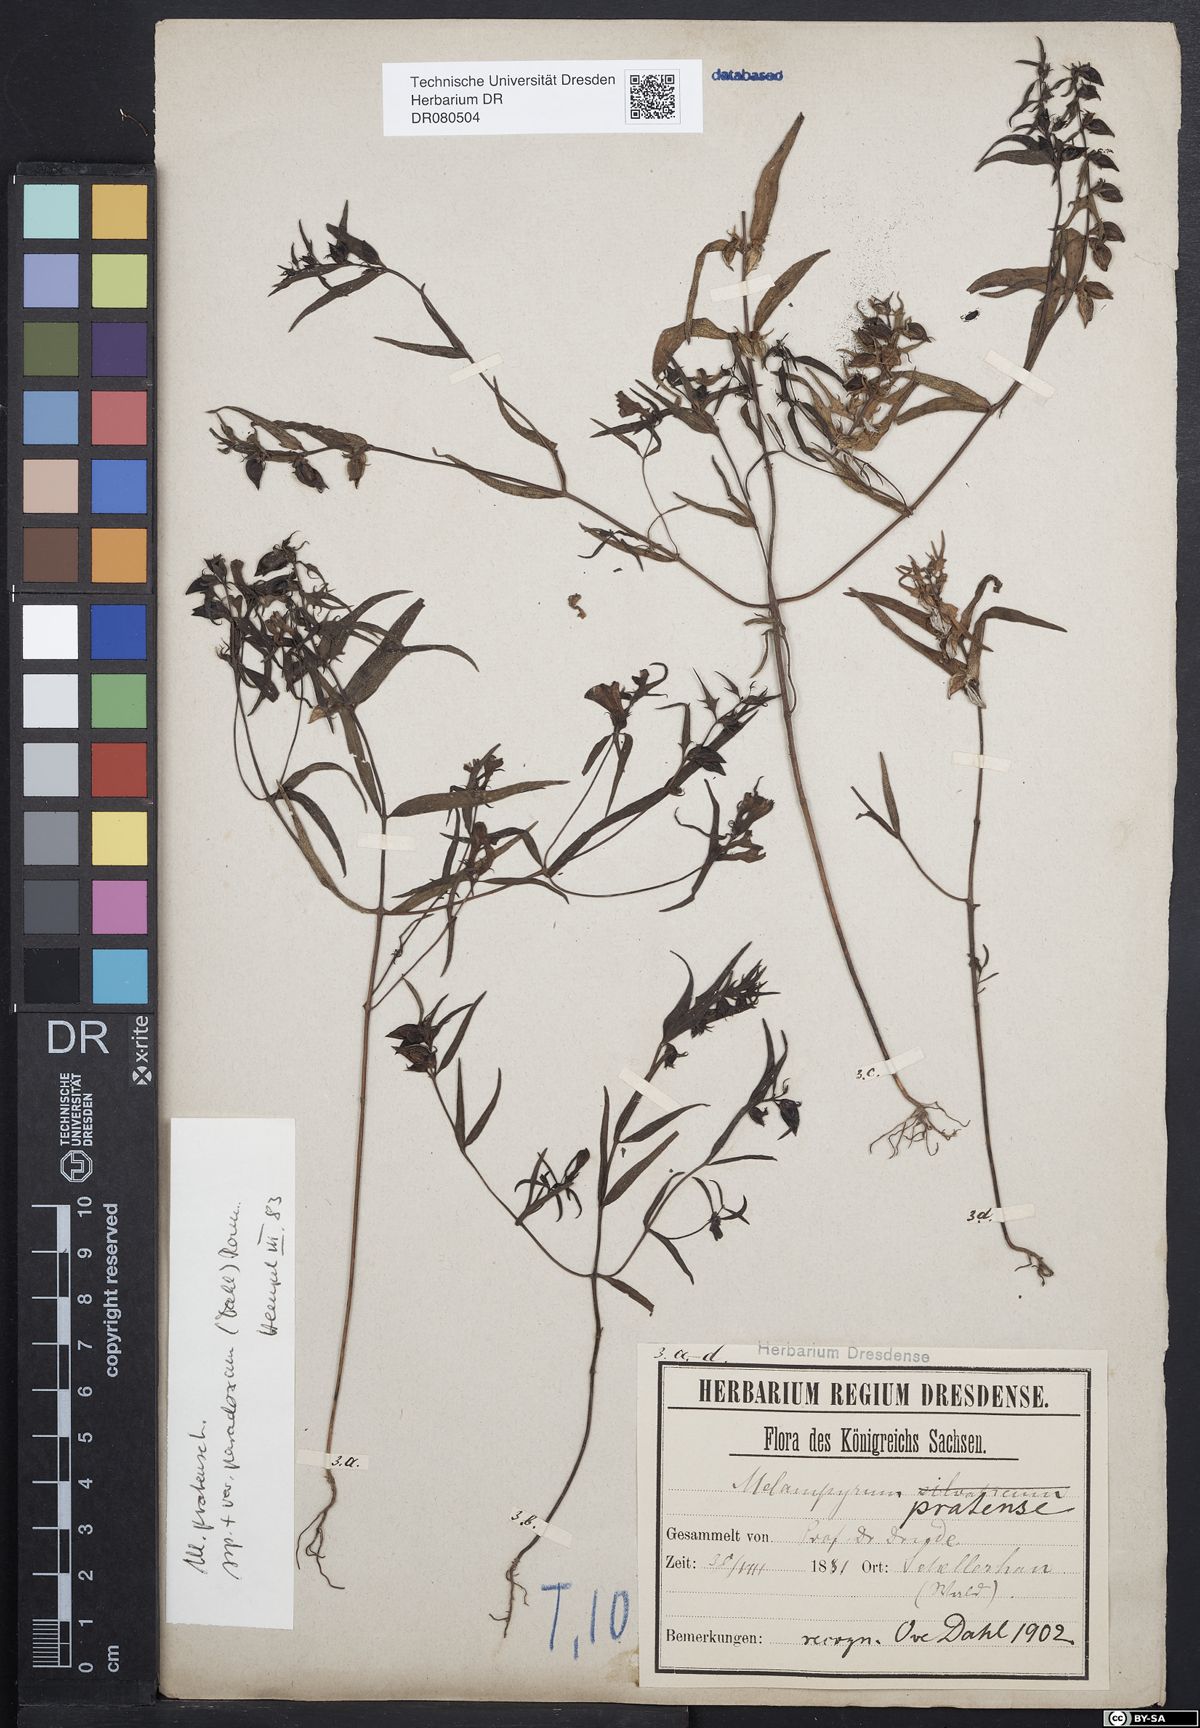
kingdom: Plantae
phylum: Tracheophyta
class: Magnoliopsida
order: Lamiales
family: Orobanchaceae
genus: Melampyrum
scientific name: Melampyrum pratense
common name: Common cow-wheat
